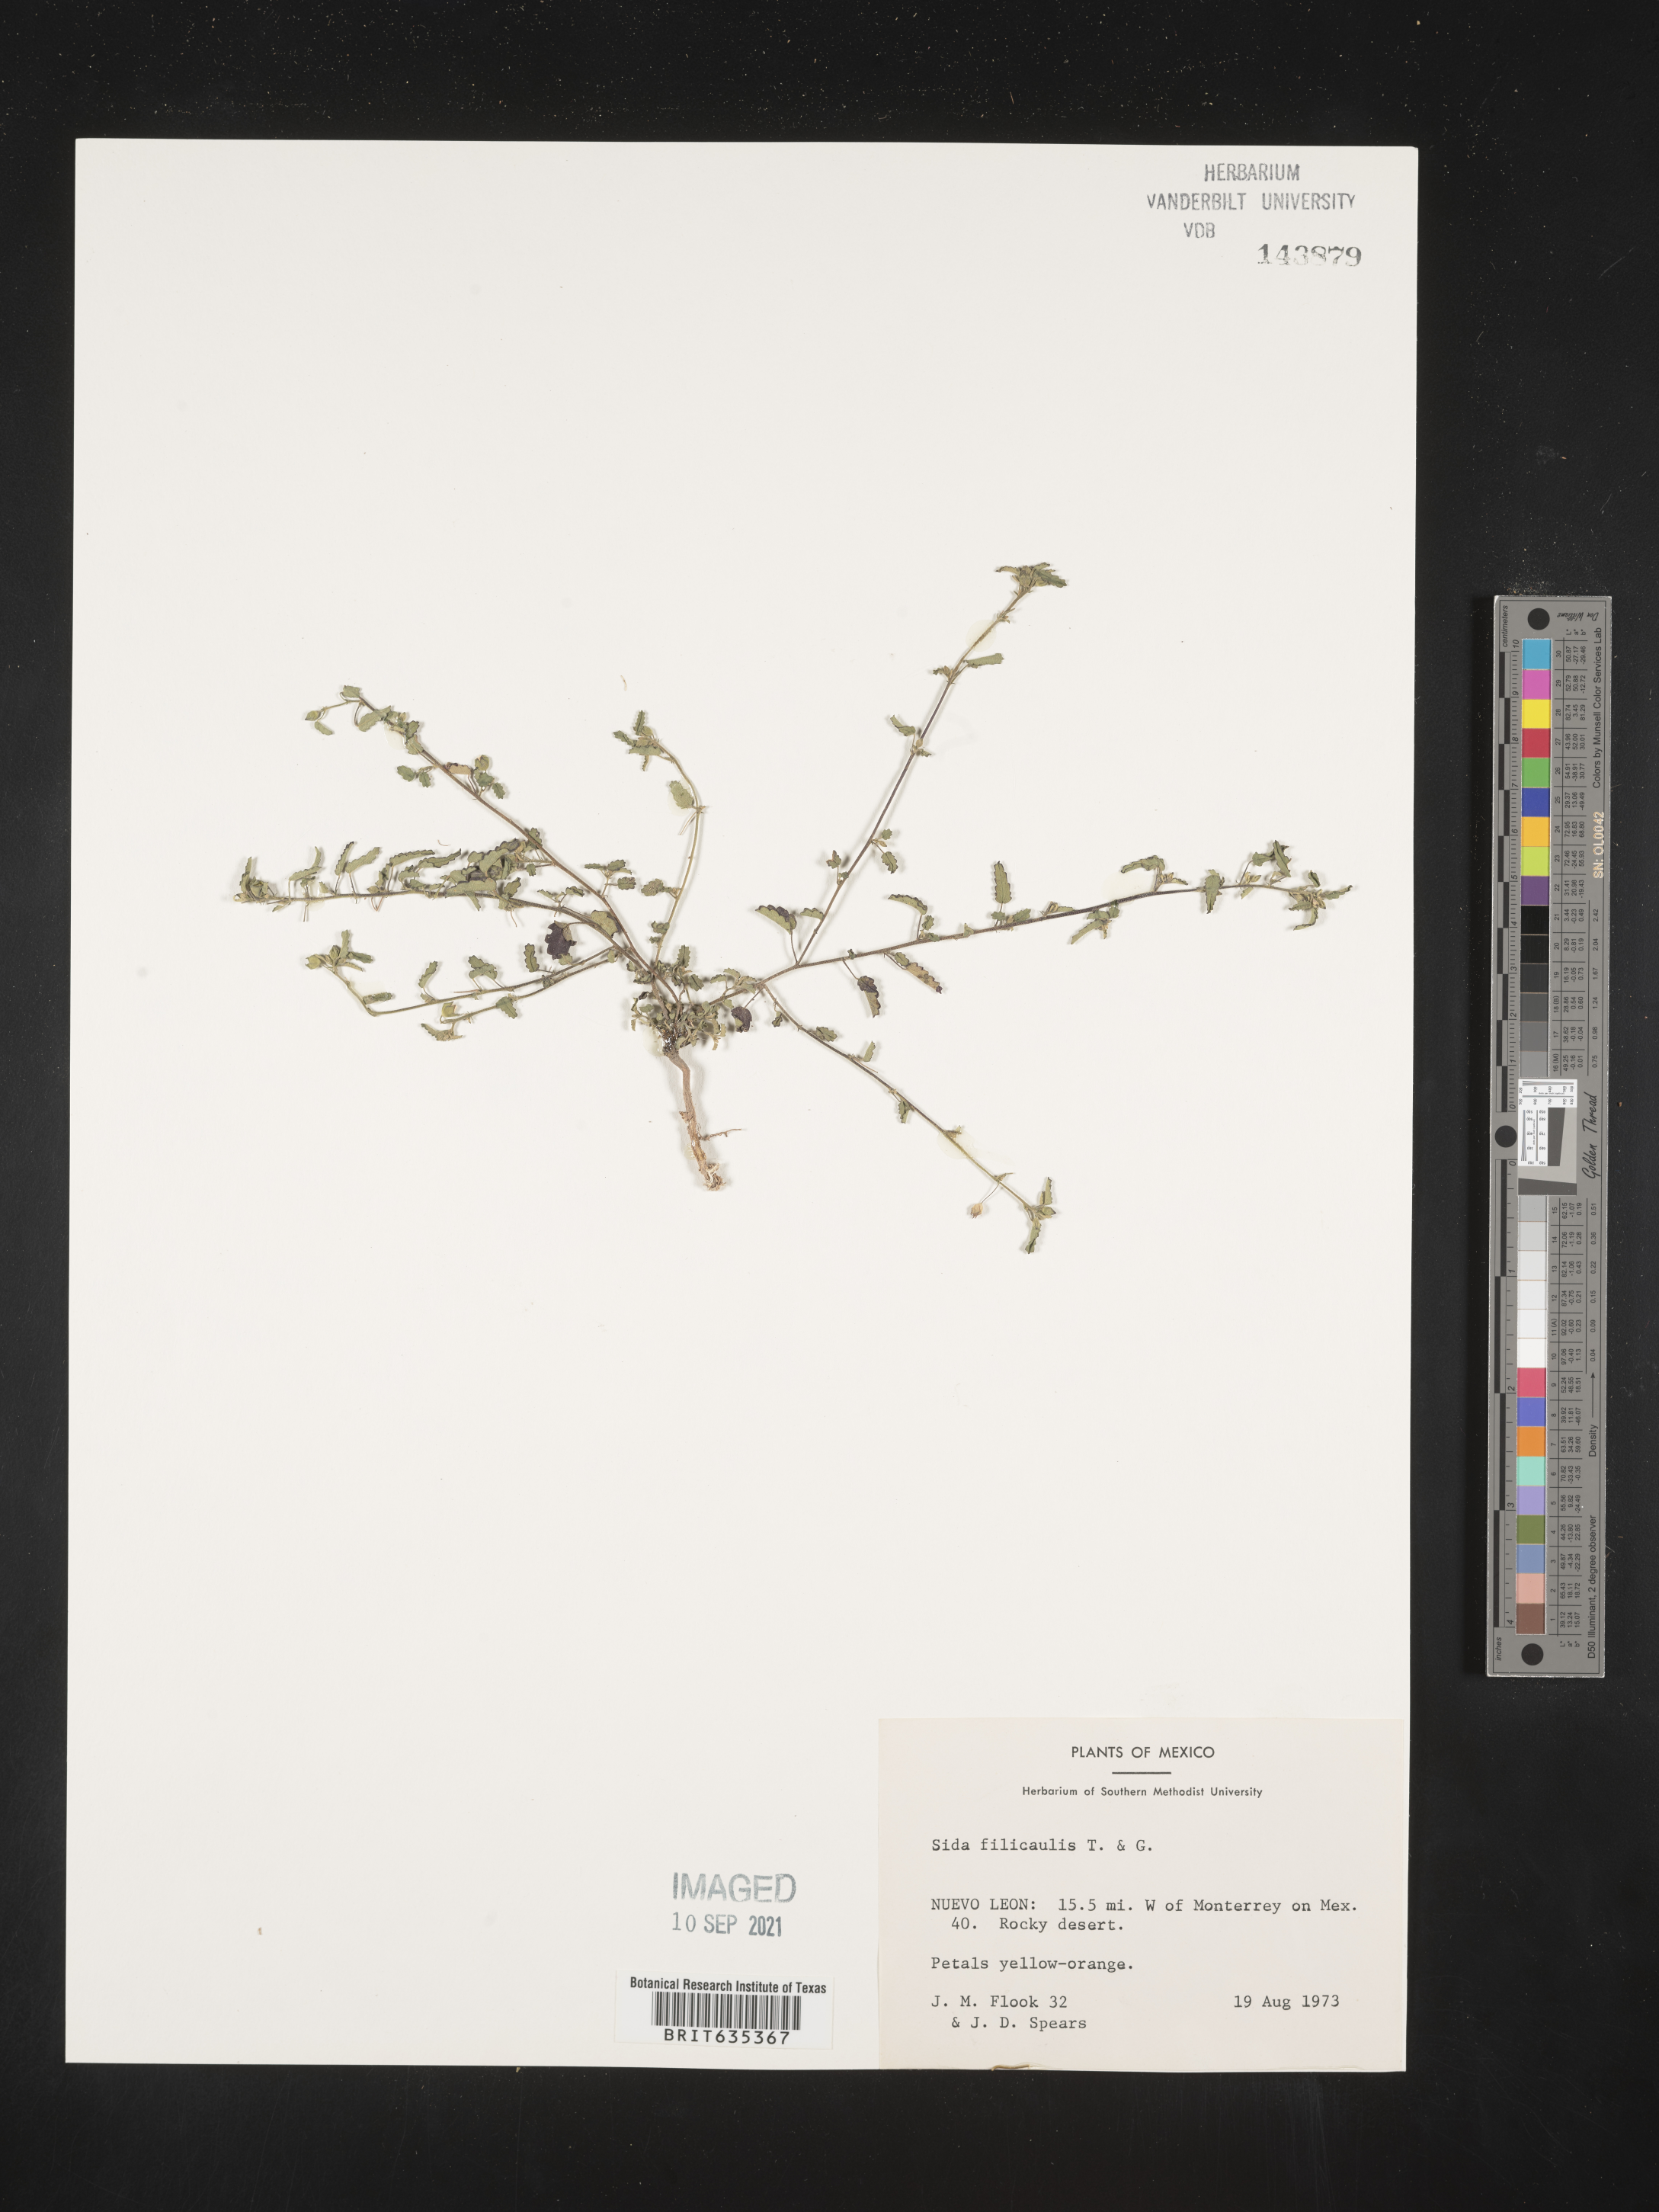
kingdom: Plantae
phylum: Tracheophyta
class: Magnoliopsida
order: Malvales
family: Malvaceae
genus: Sida
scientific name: Sida
